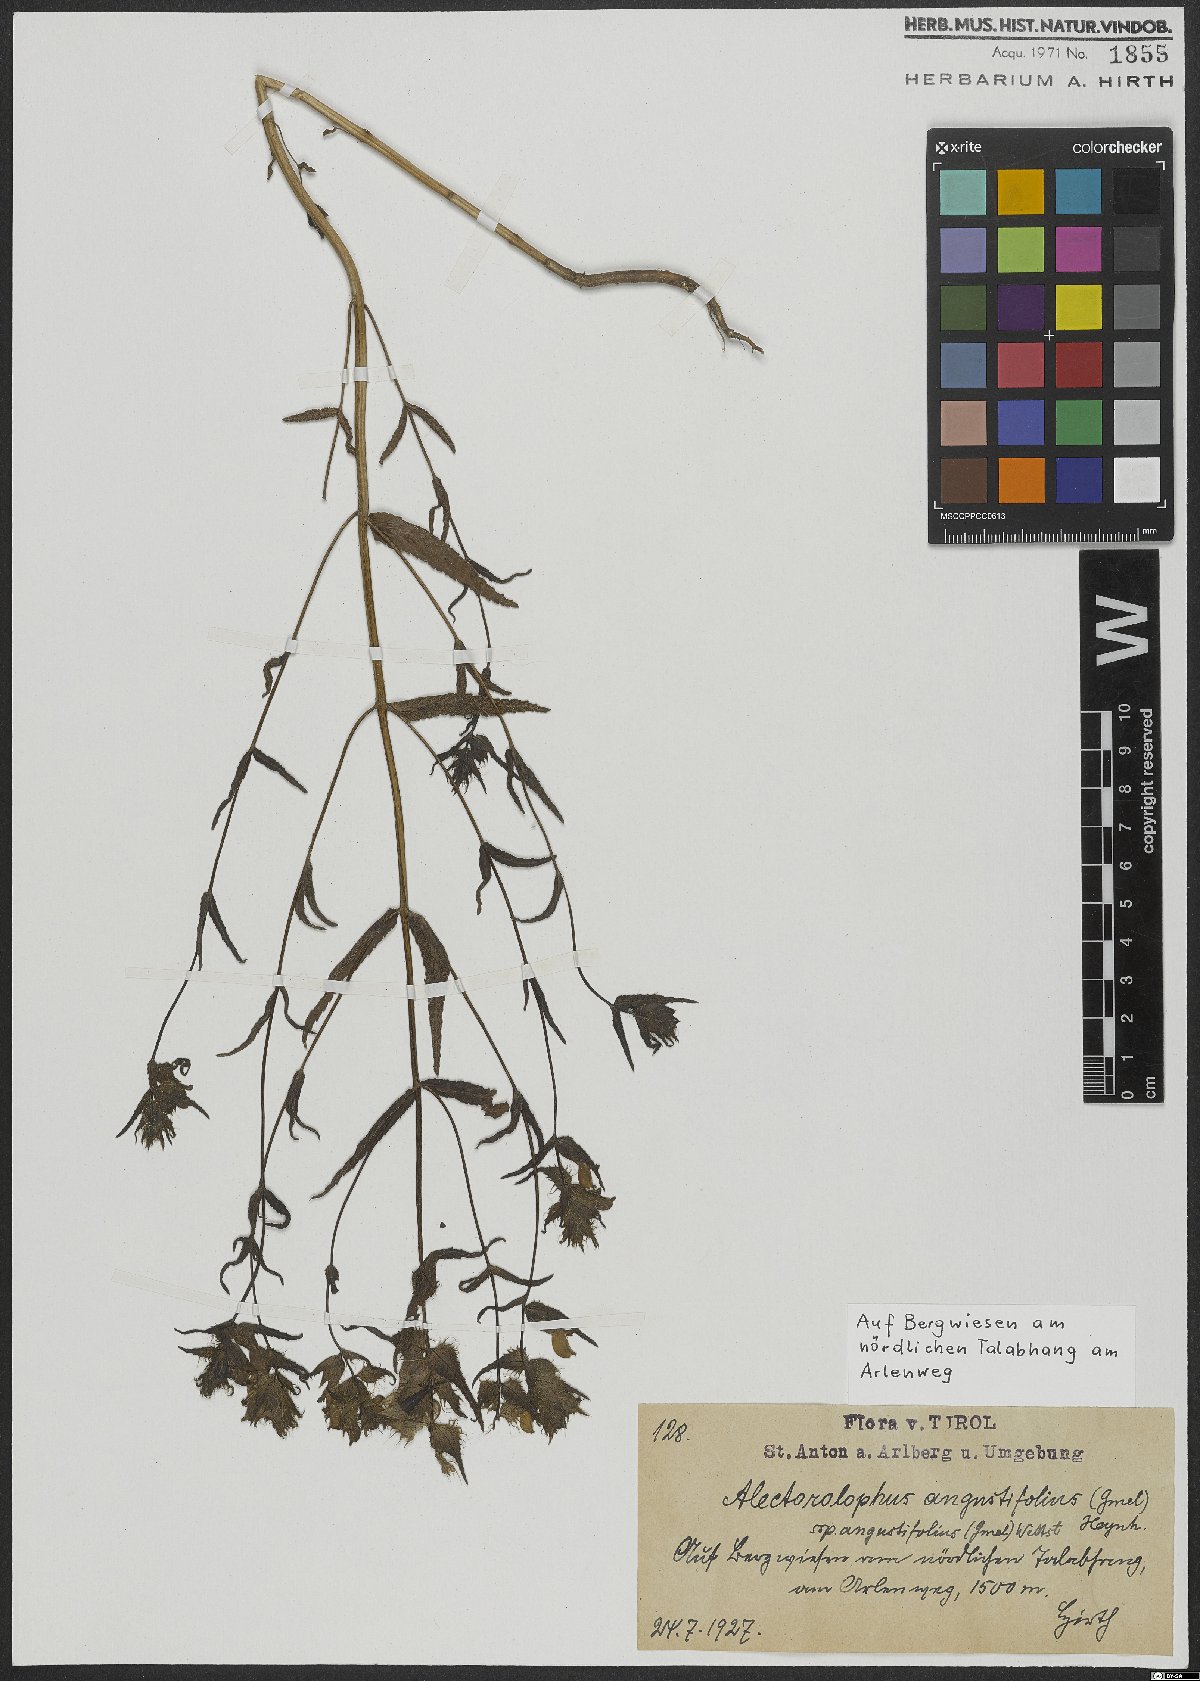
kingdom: Plantae
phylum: Tracheophyta
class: Magnoliopsida
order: Lamiales
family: Orobanchaceae
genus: Rhinanthus
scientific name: Rhinanthus glacialis
